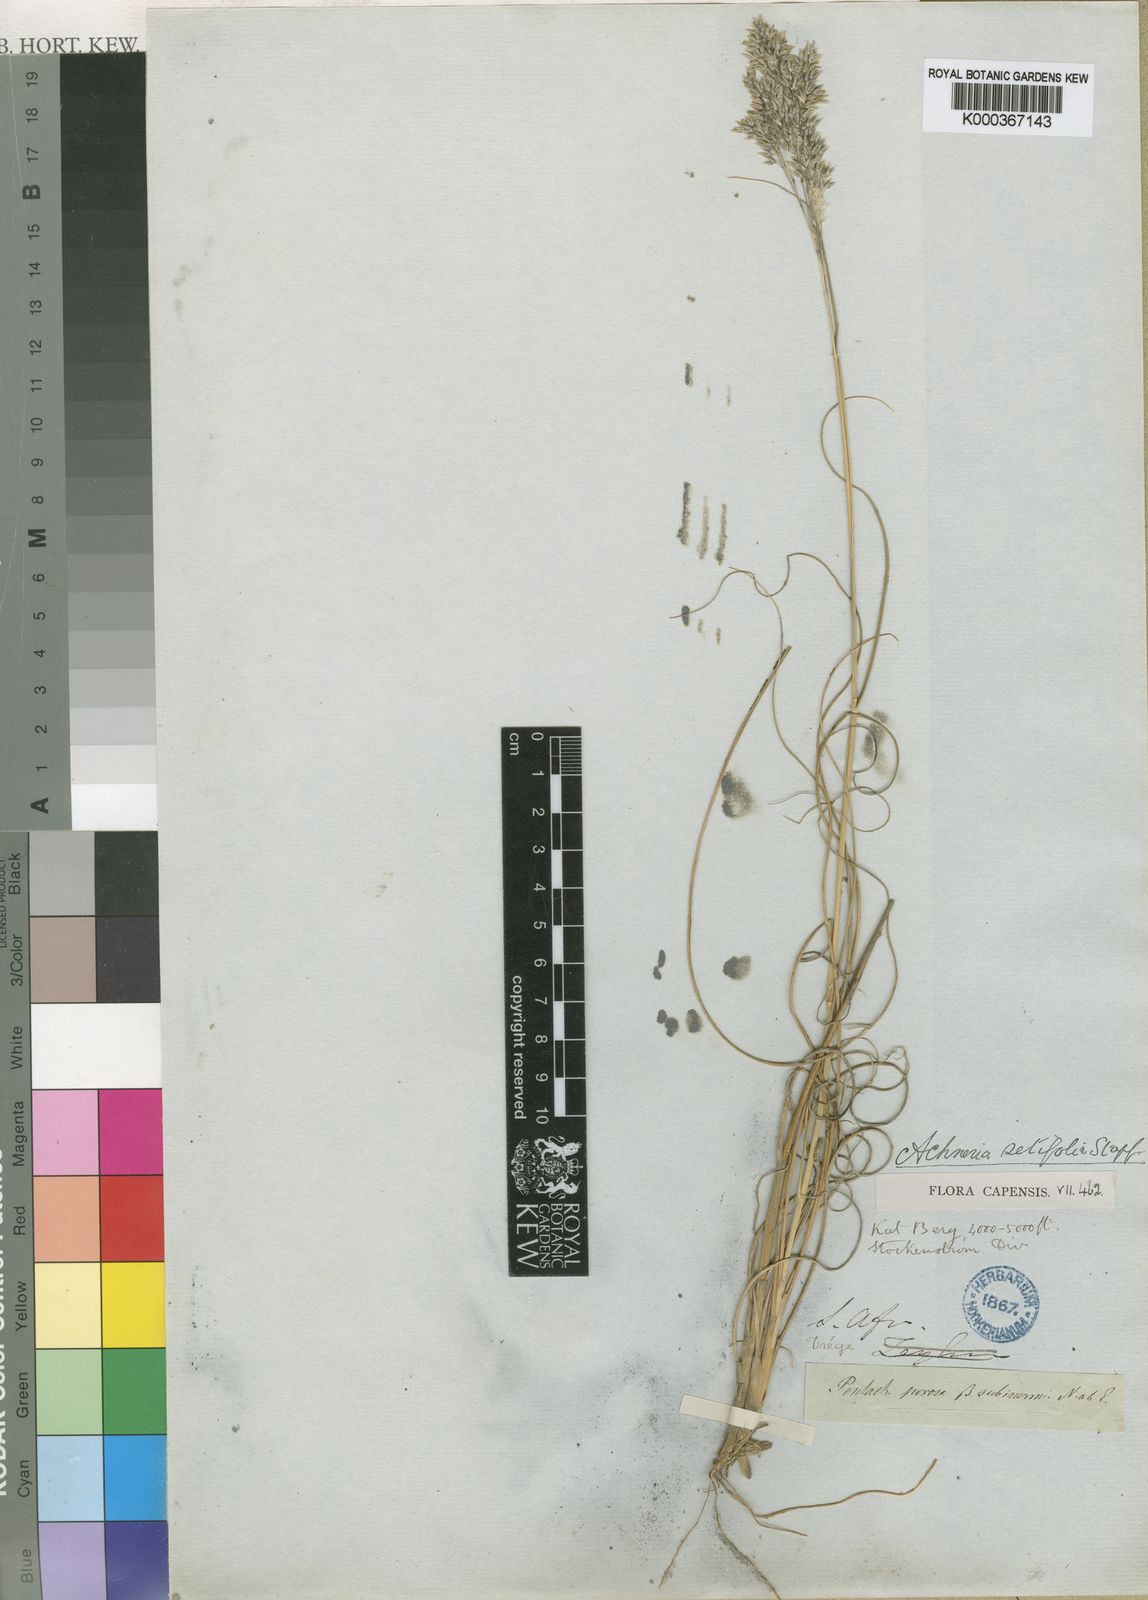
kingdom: Plantae
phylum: Tracheophyta
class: Liliopsida
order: Poales
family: Poaceae
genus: Pentameris
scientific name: Pentameris ampla
